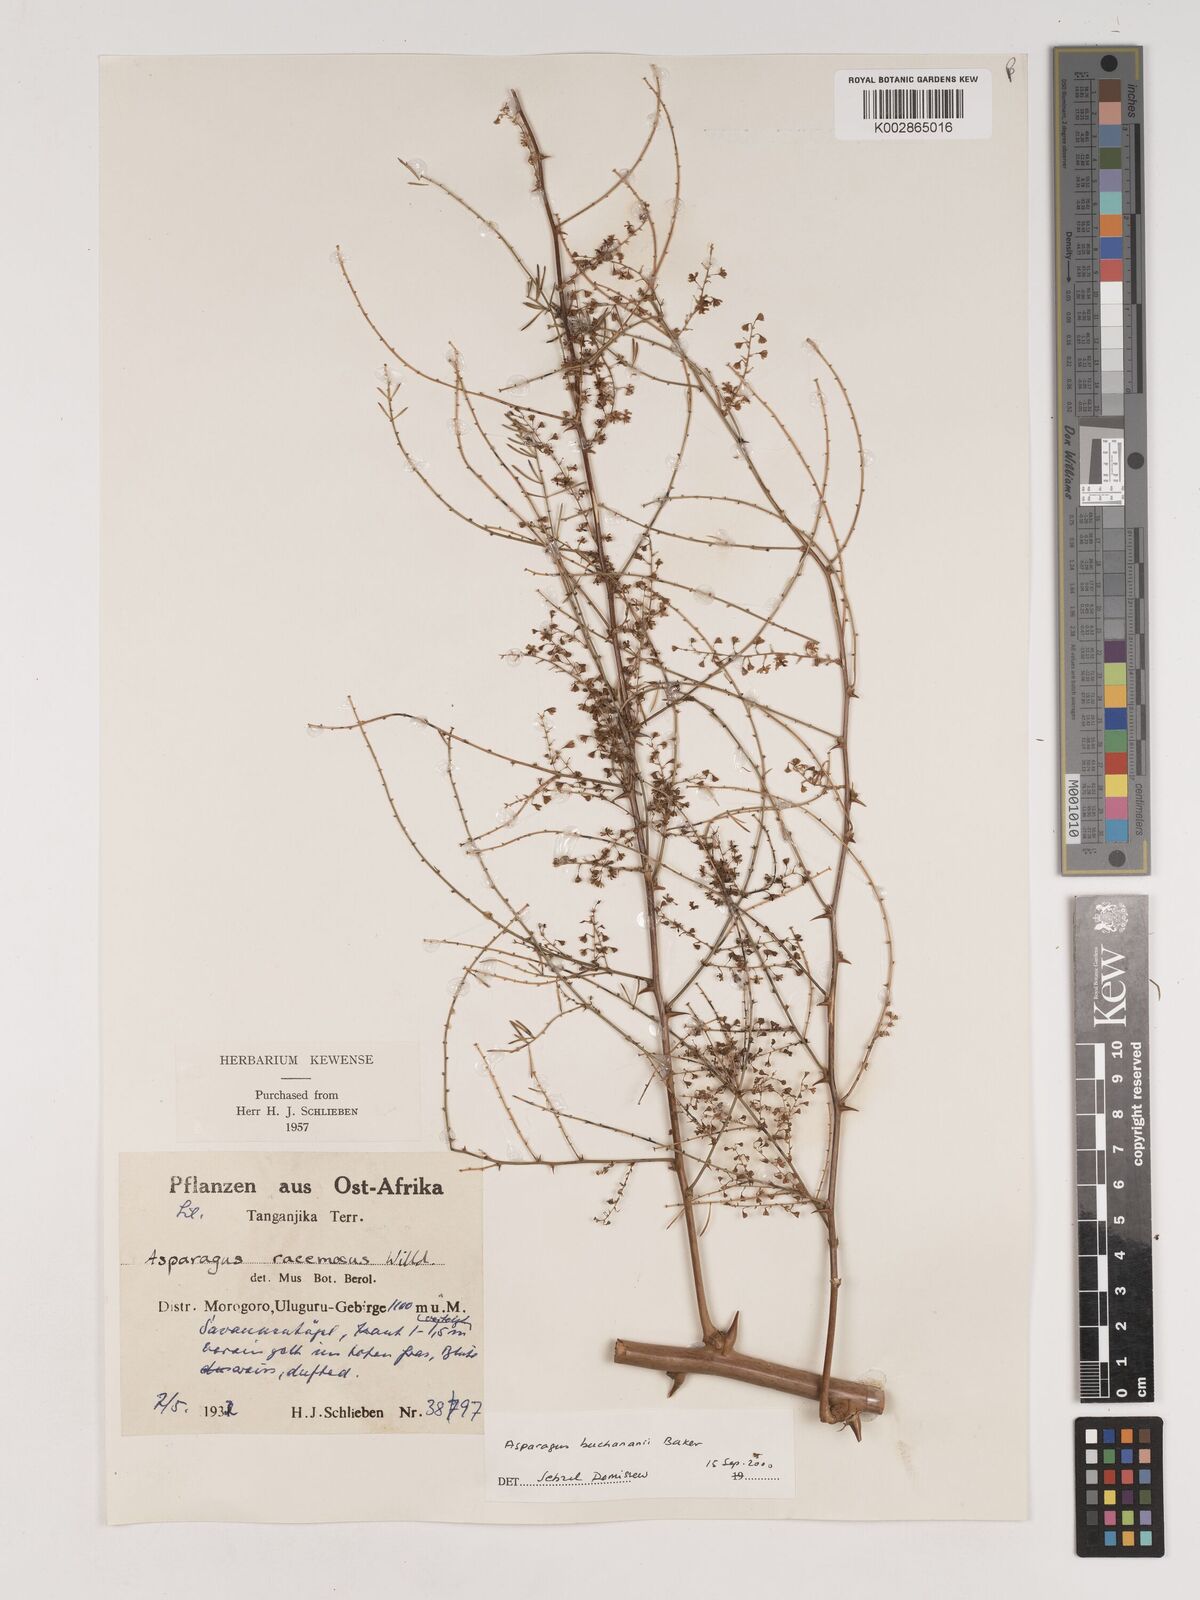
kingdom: Plantae
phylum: Tracheophyta
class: Liliopsida
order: Asparagales
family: Asparagaceae
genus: Asparagus
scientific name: Asparagus buchananii
